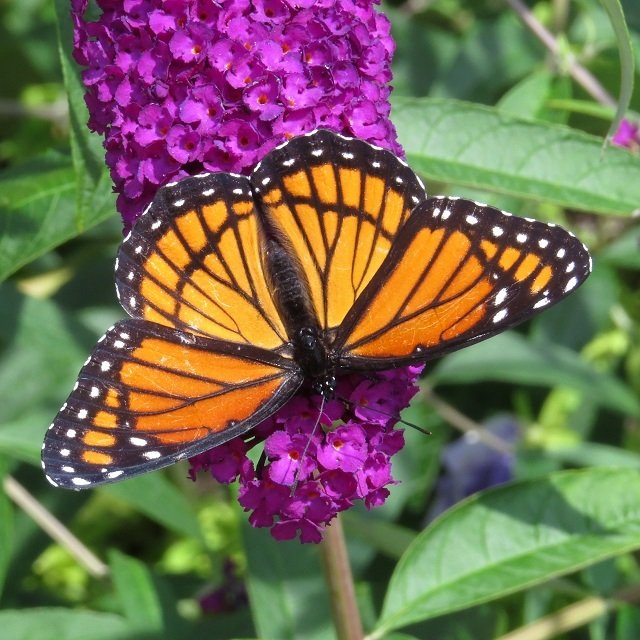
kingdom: Animalia
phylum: Arthropoda
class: Insecta
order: Lepidoptera
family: Nymphalidae
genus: Limenitis
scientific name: Limenitis archippus
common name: Viceroy
